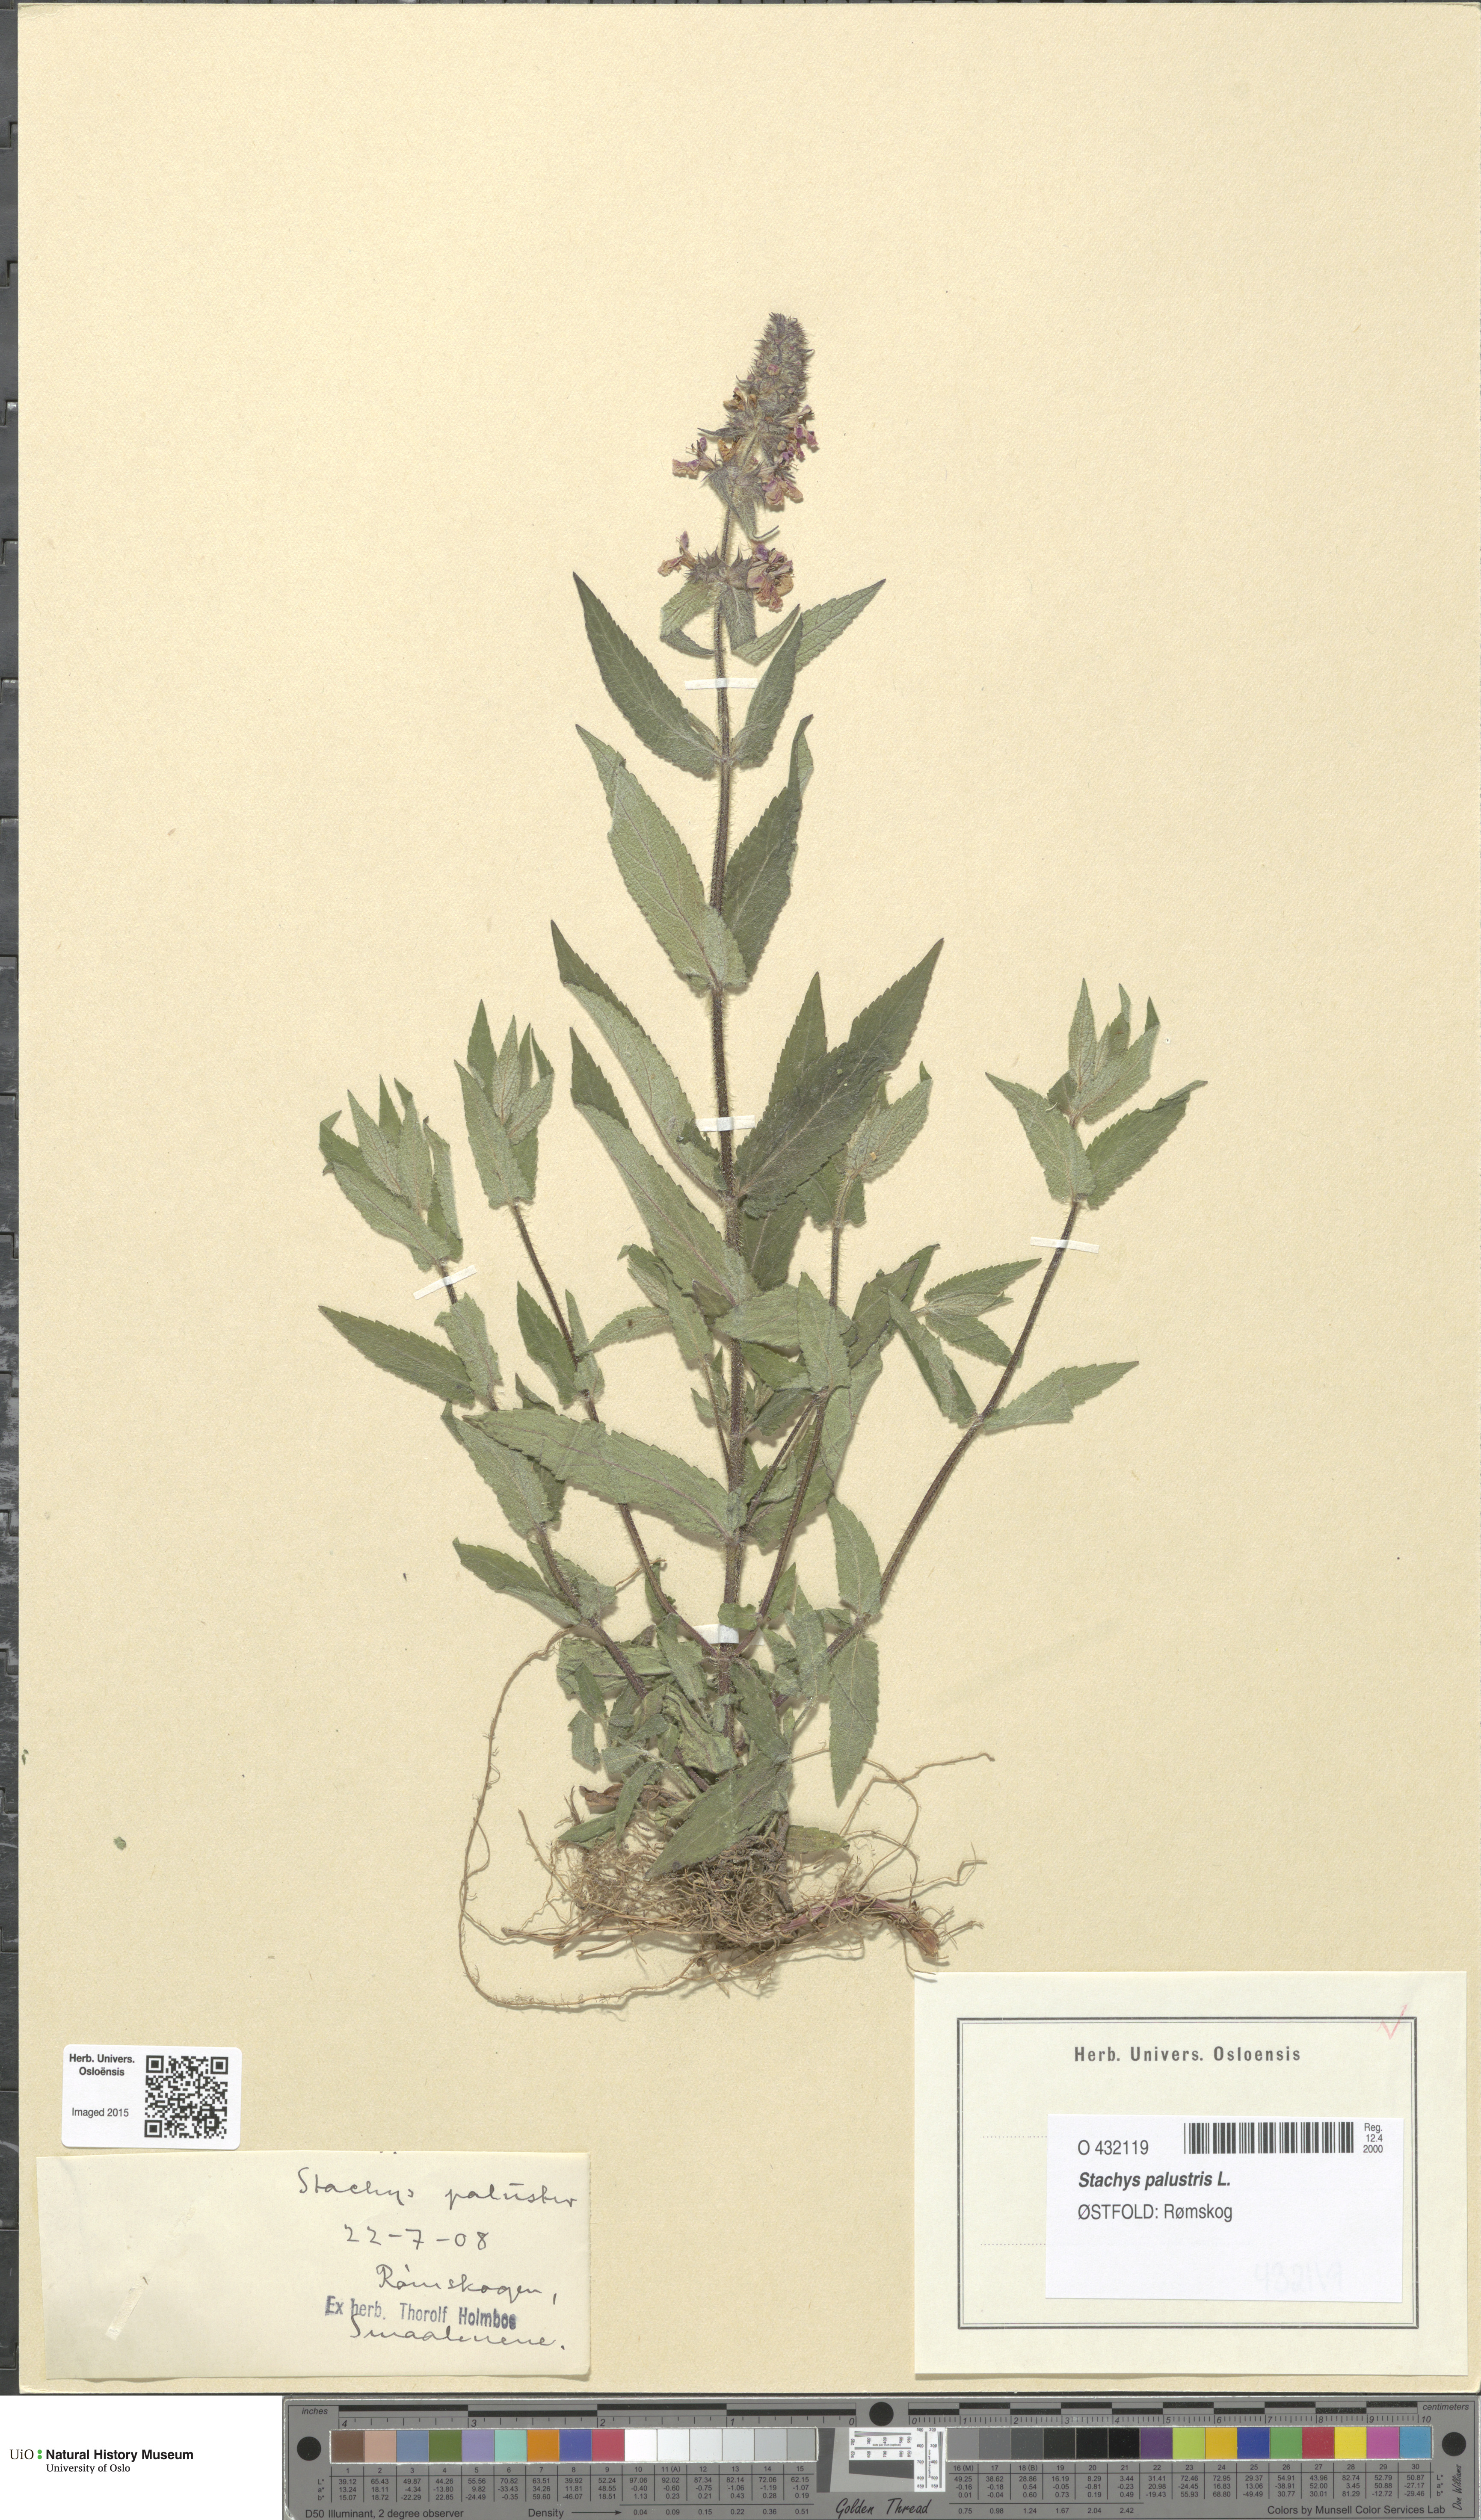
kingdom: Plantae
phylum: Tracheophyta
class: Magnoliopsida
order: Lamiales
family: Lamiaceae
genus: Stachys
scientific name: Stachys palustris
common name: Marsh woundwort
